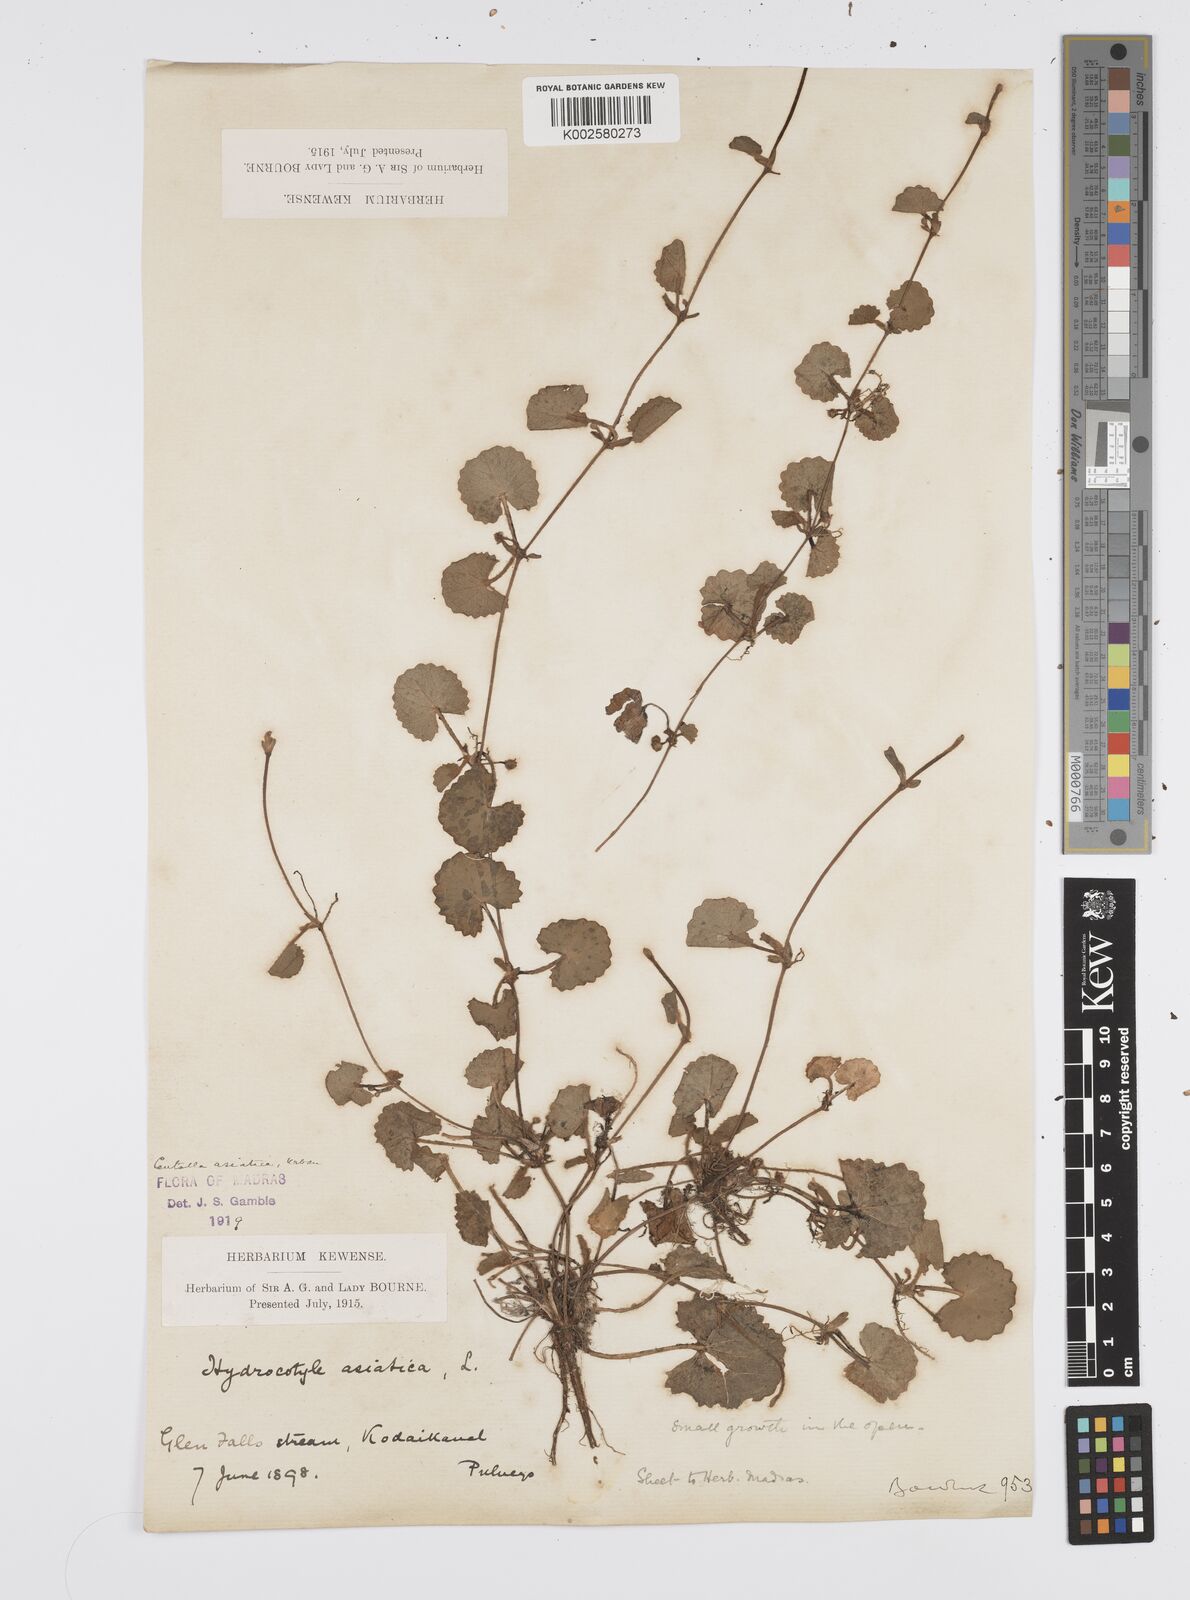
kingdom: Plantae
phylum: Tracheophyta
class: Magnoliopsida
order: Apiales
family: Apiaceae
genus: Centella
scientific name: Centella asiatica
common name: Spadeleaf
